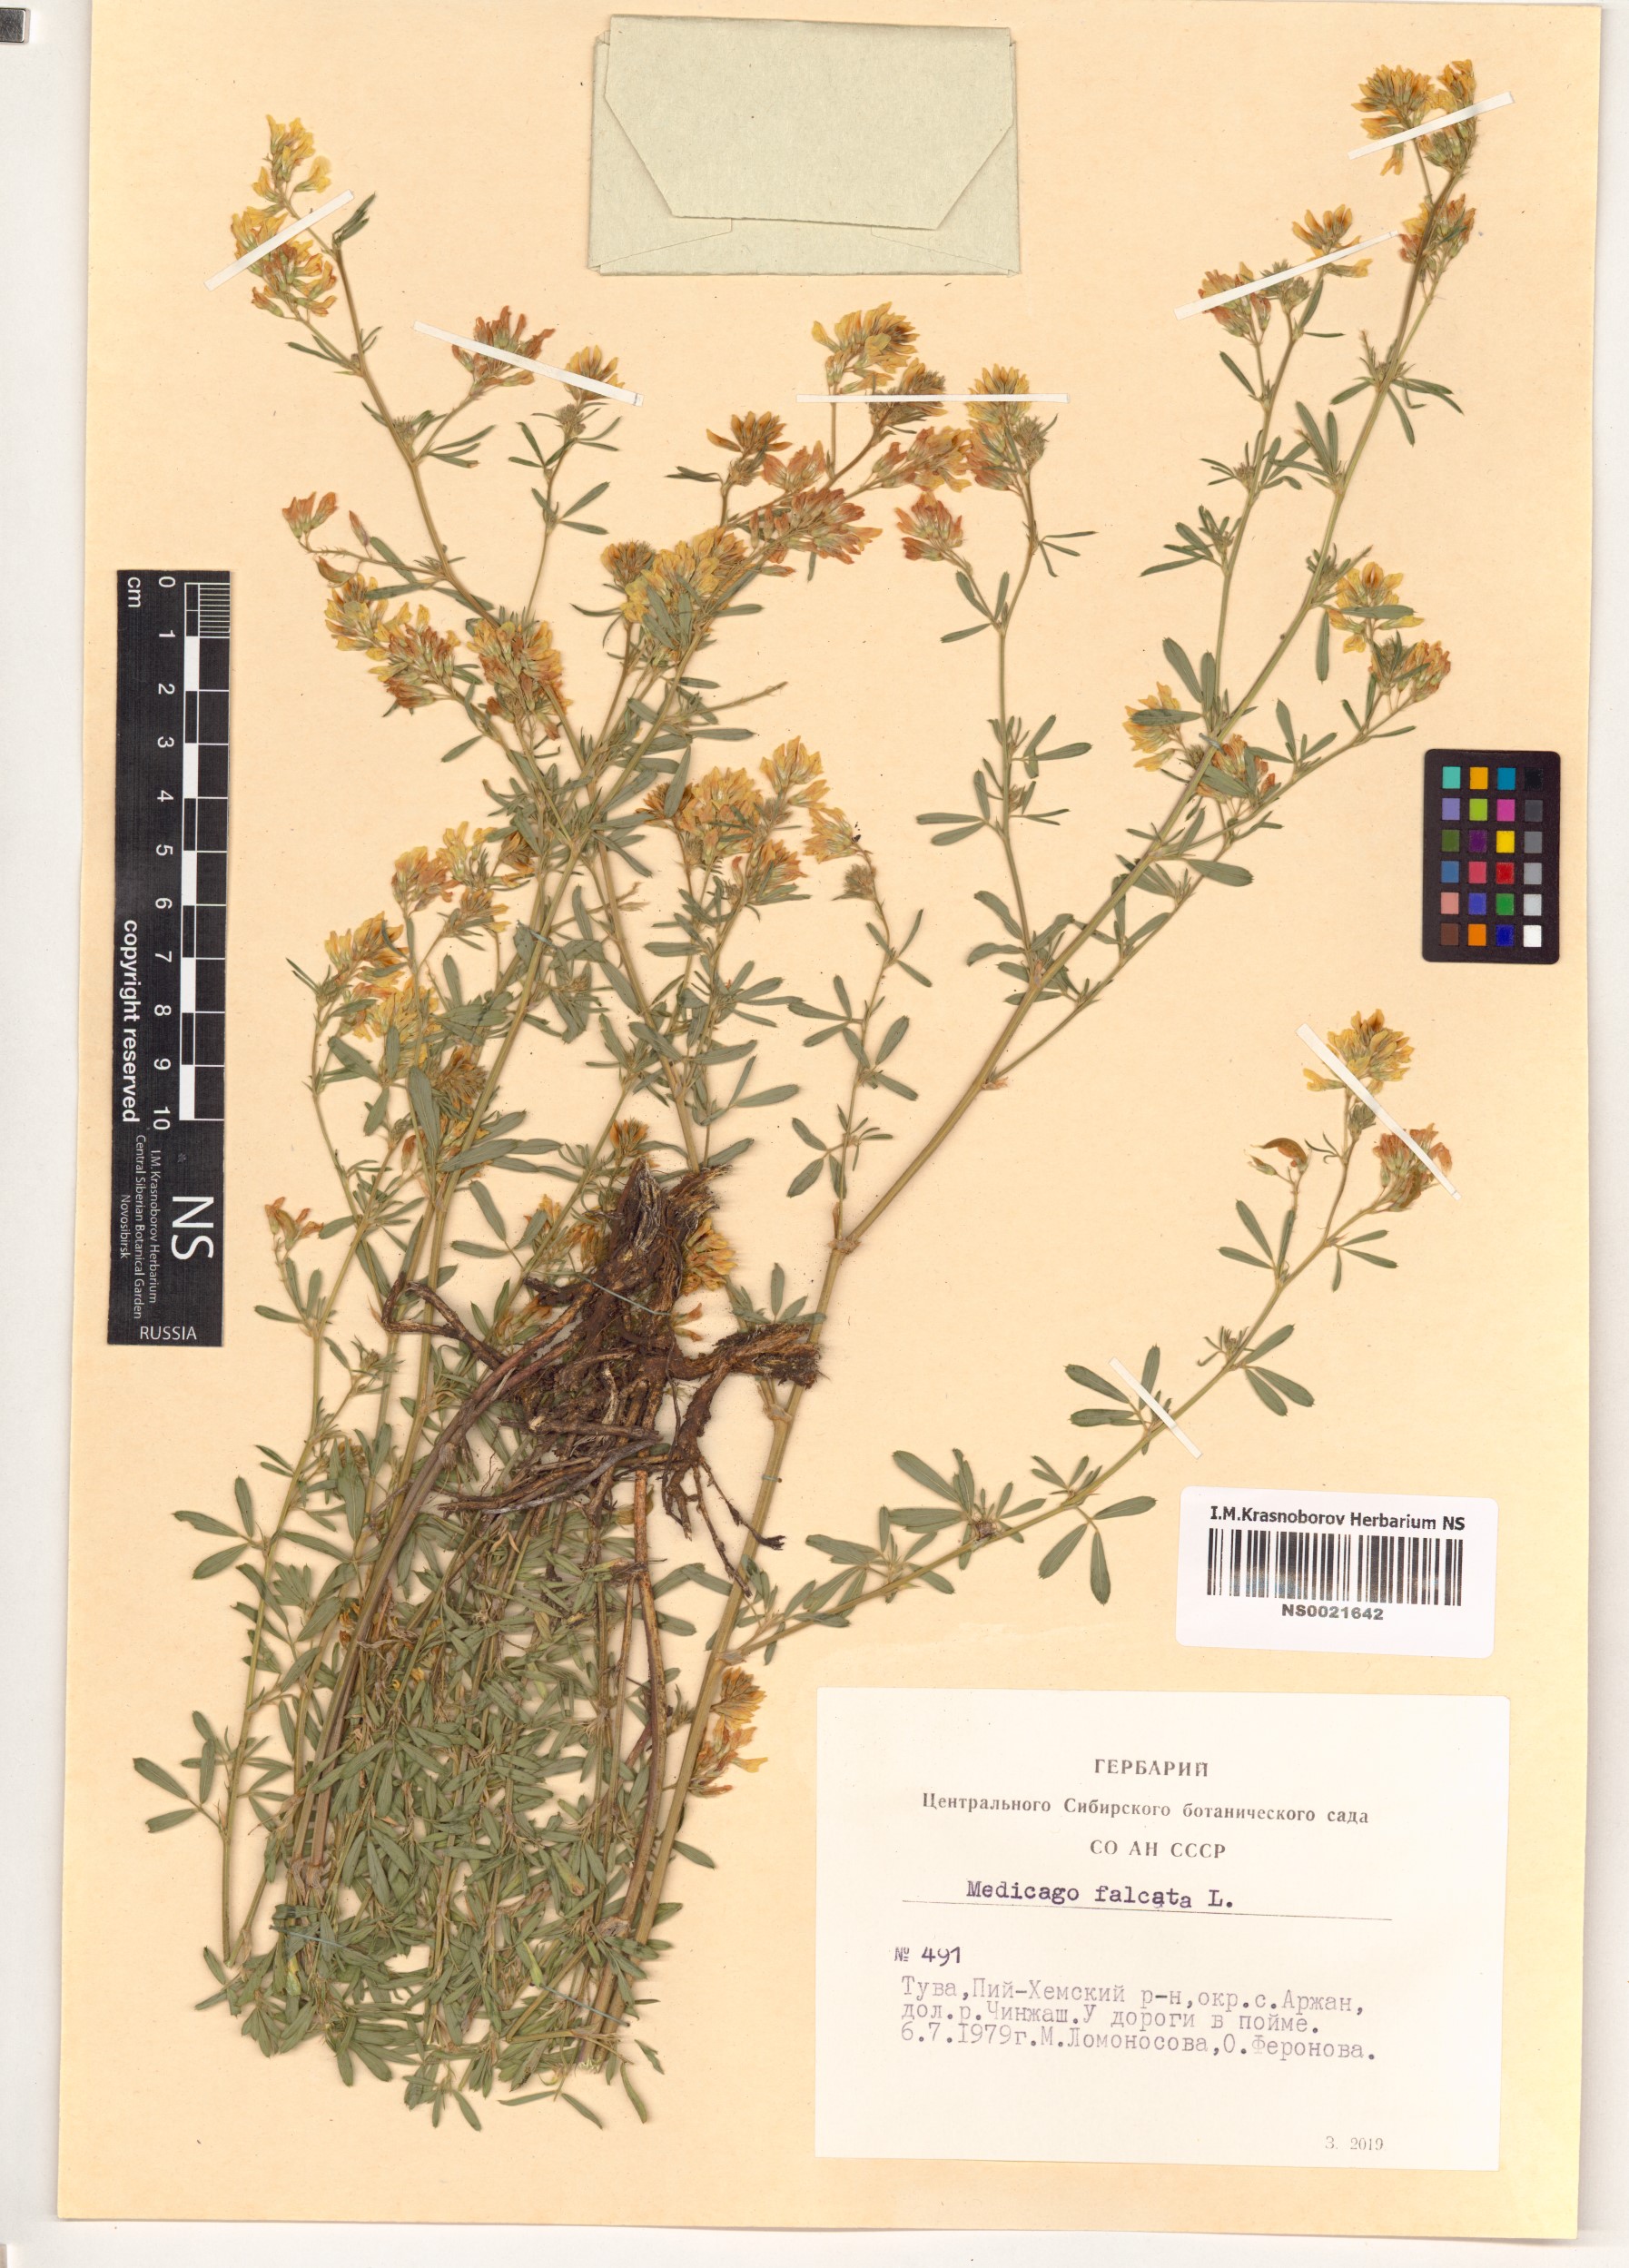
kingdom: Plantae
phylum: Tracheophyta
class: Magnoliopsida
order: Fabales
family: Fabaceae
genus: Medicago
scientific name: Medicago falcata
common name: Sickle medick
